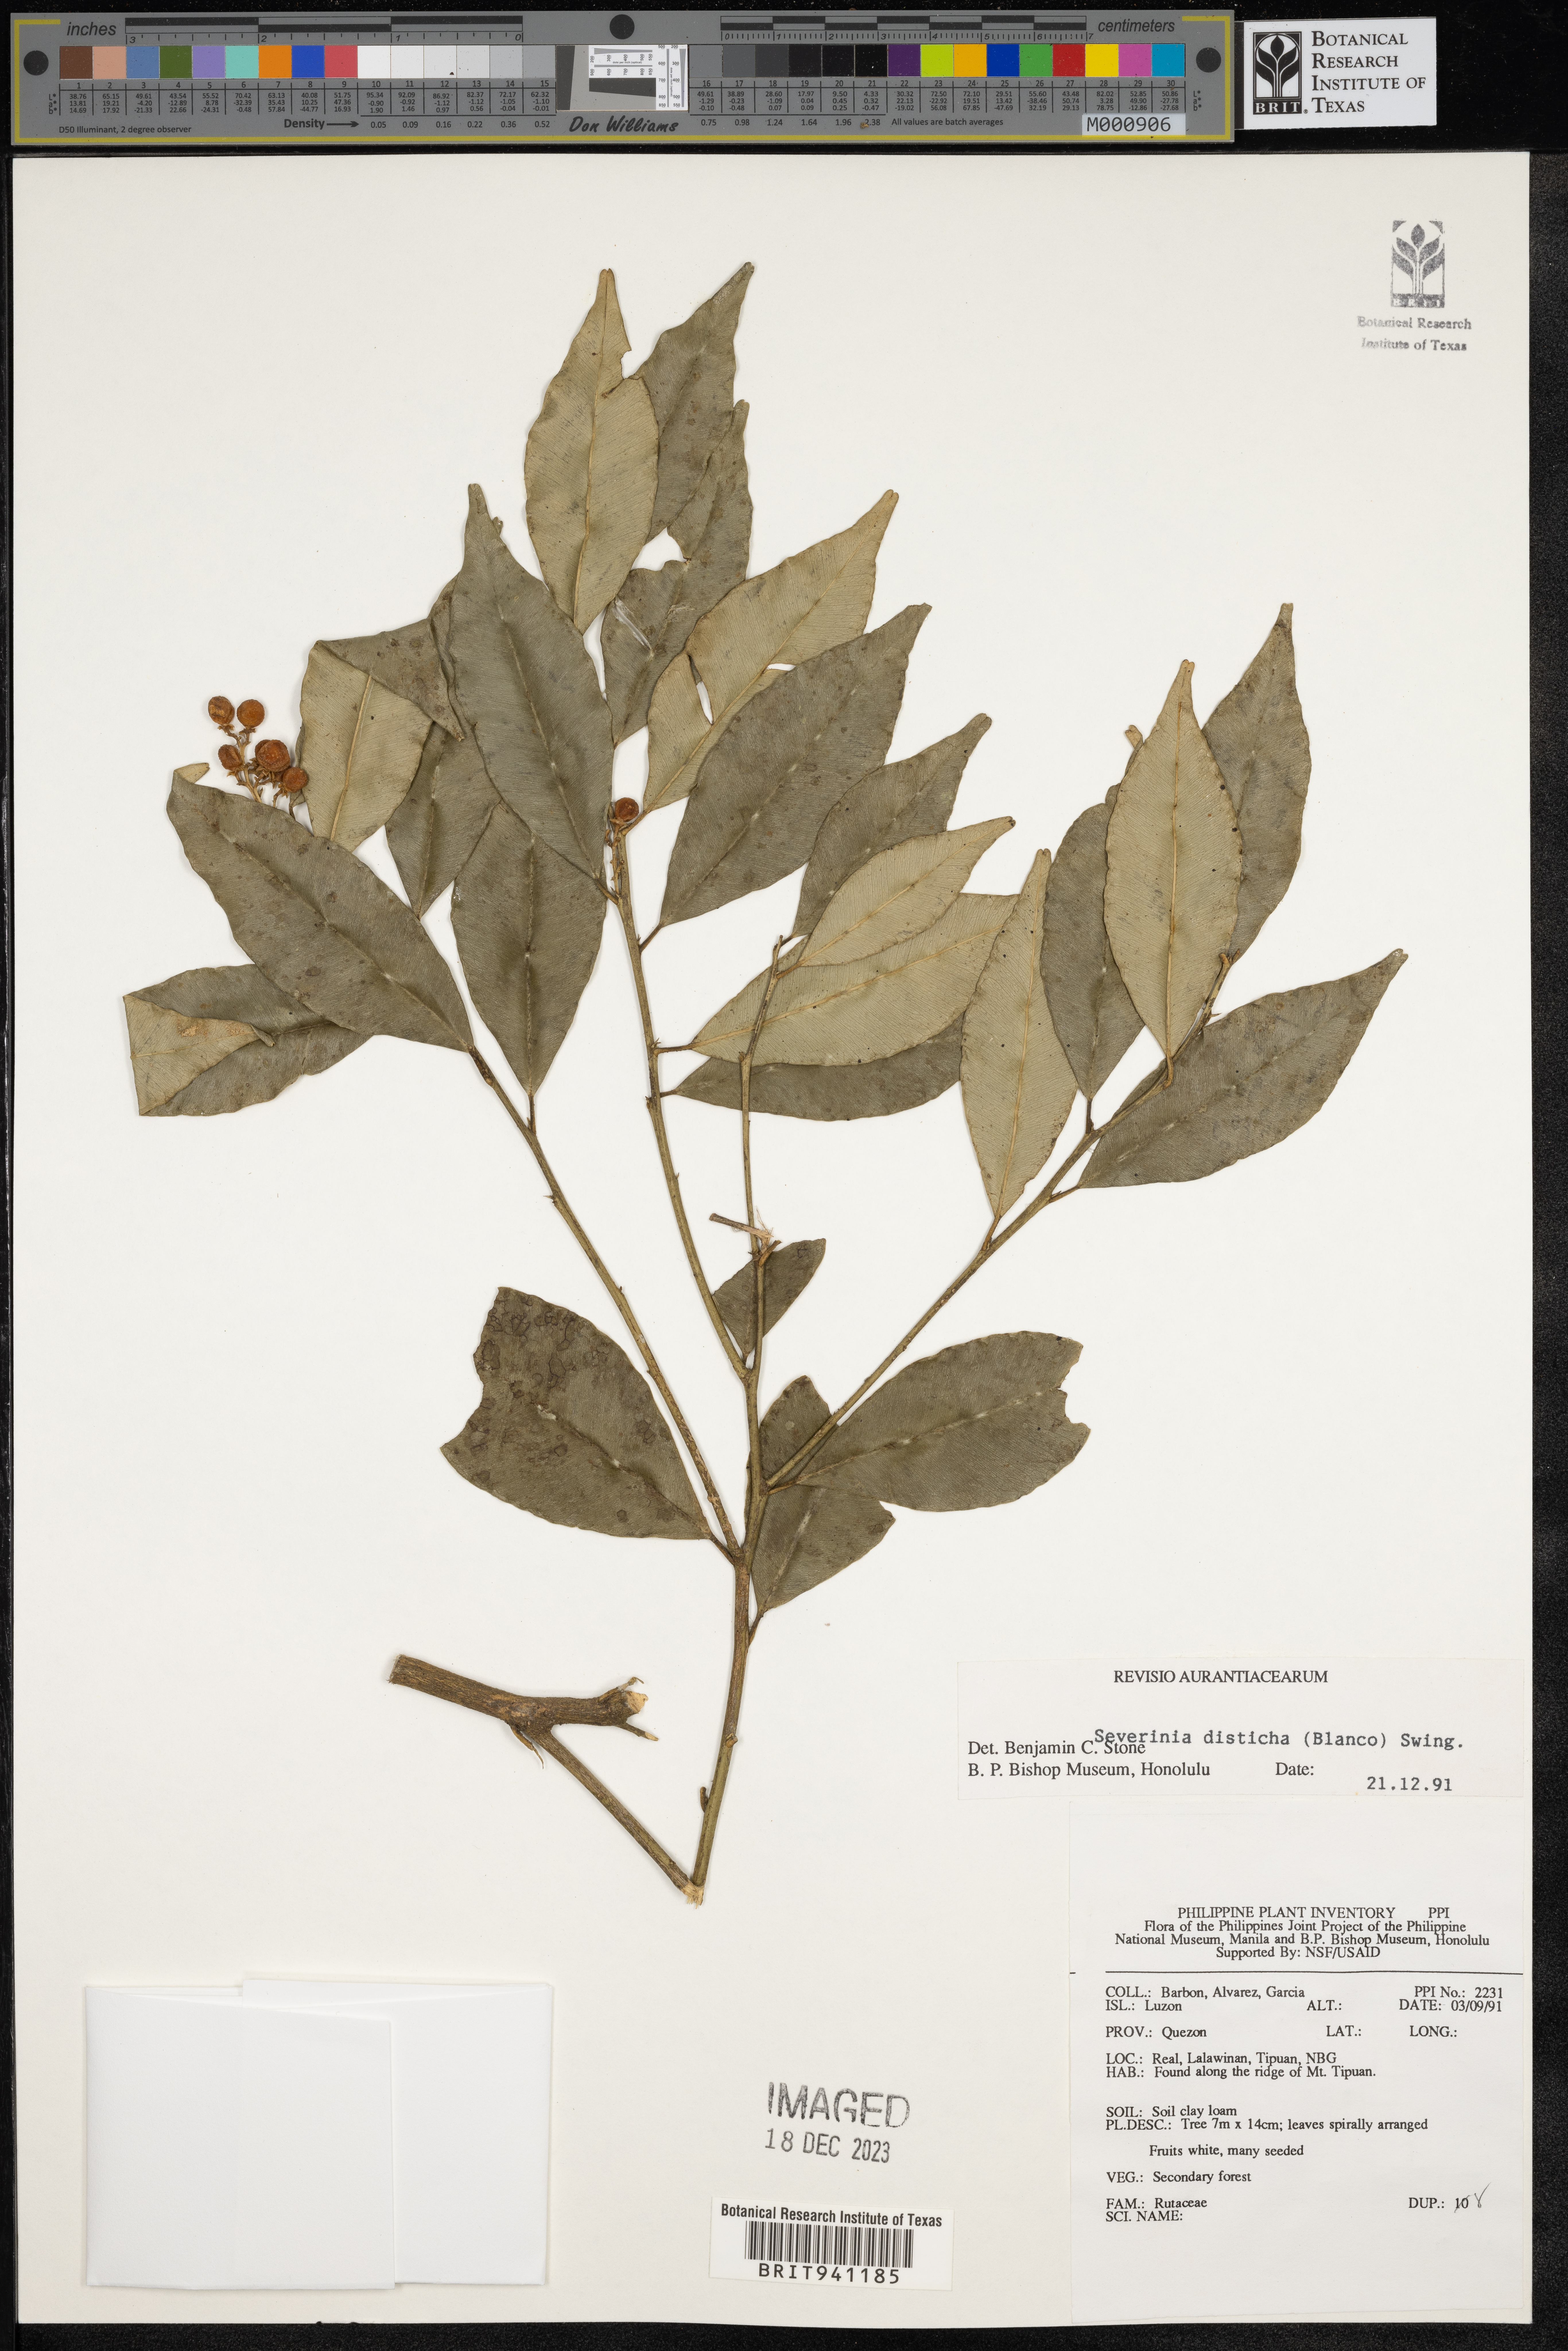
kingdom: Animalia
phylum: Arthropoda
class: Insecta
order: Mantodea
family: Toxoderidae
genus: Severinia
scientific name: Severinia
